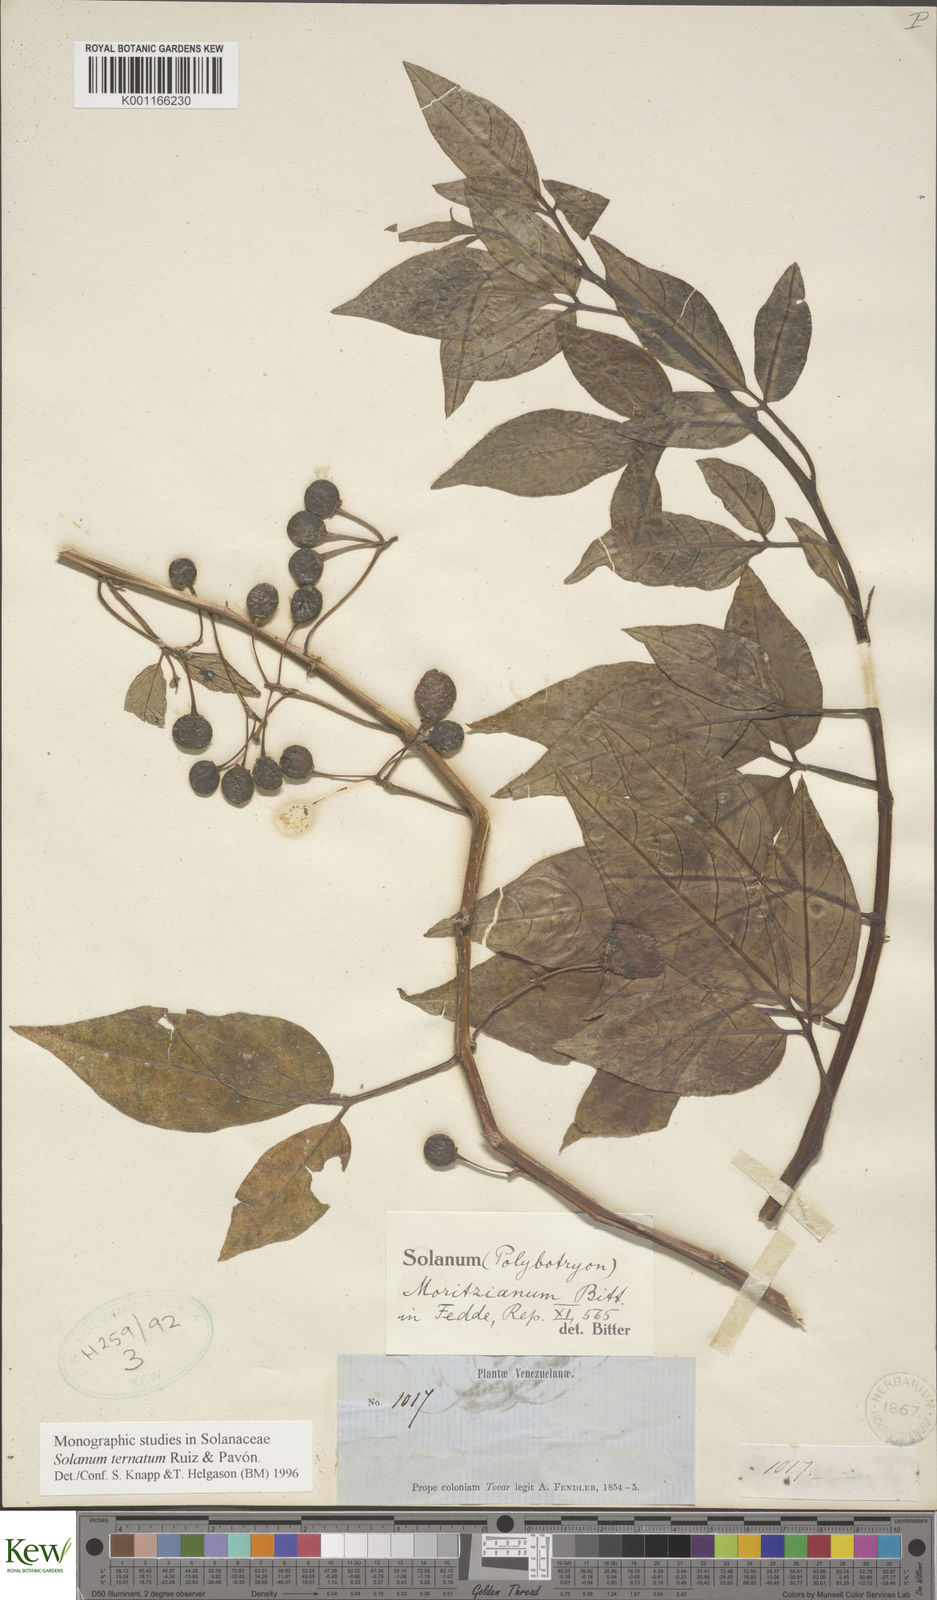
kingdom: Plantae
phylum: Tracheophyta
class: Magnoliopsida
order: Solanales
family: Solanaceae
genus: Solanum
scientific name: Solanum ternatum
